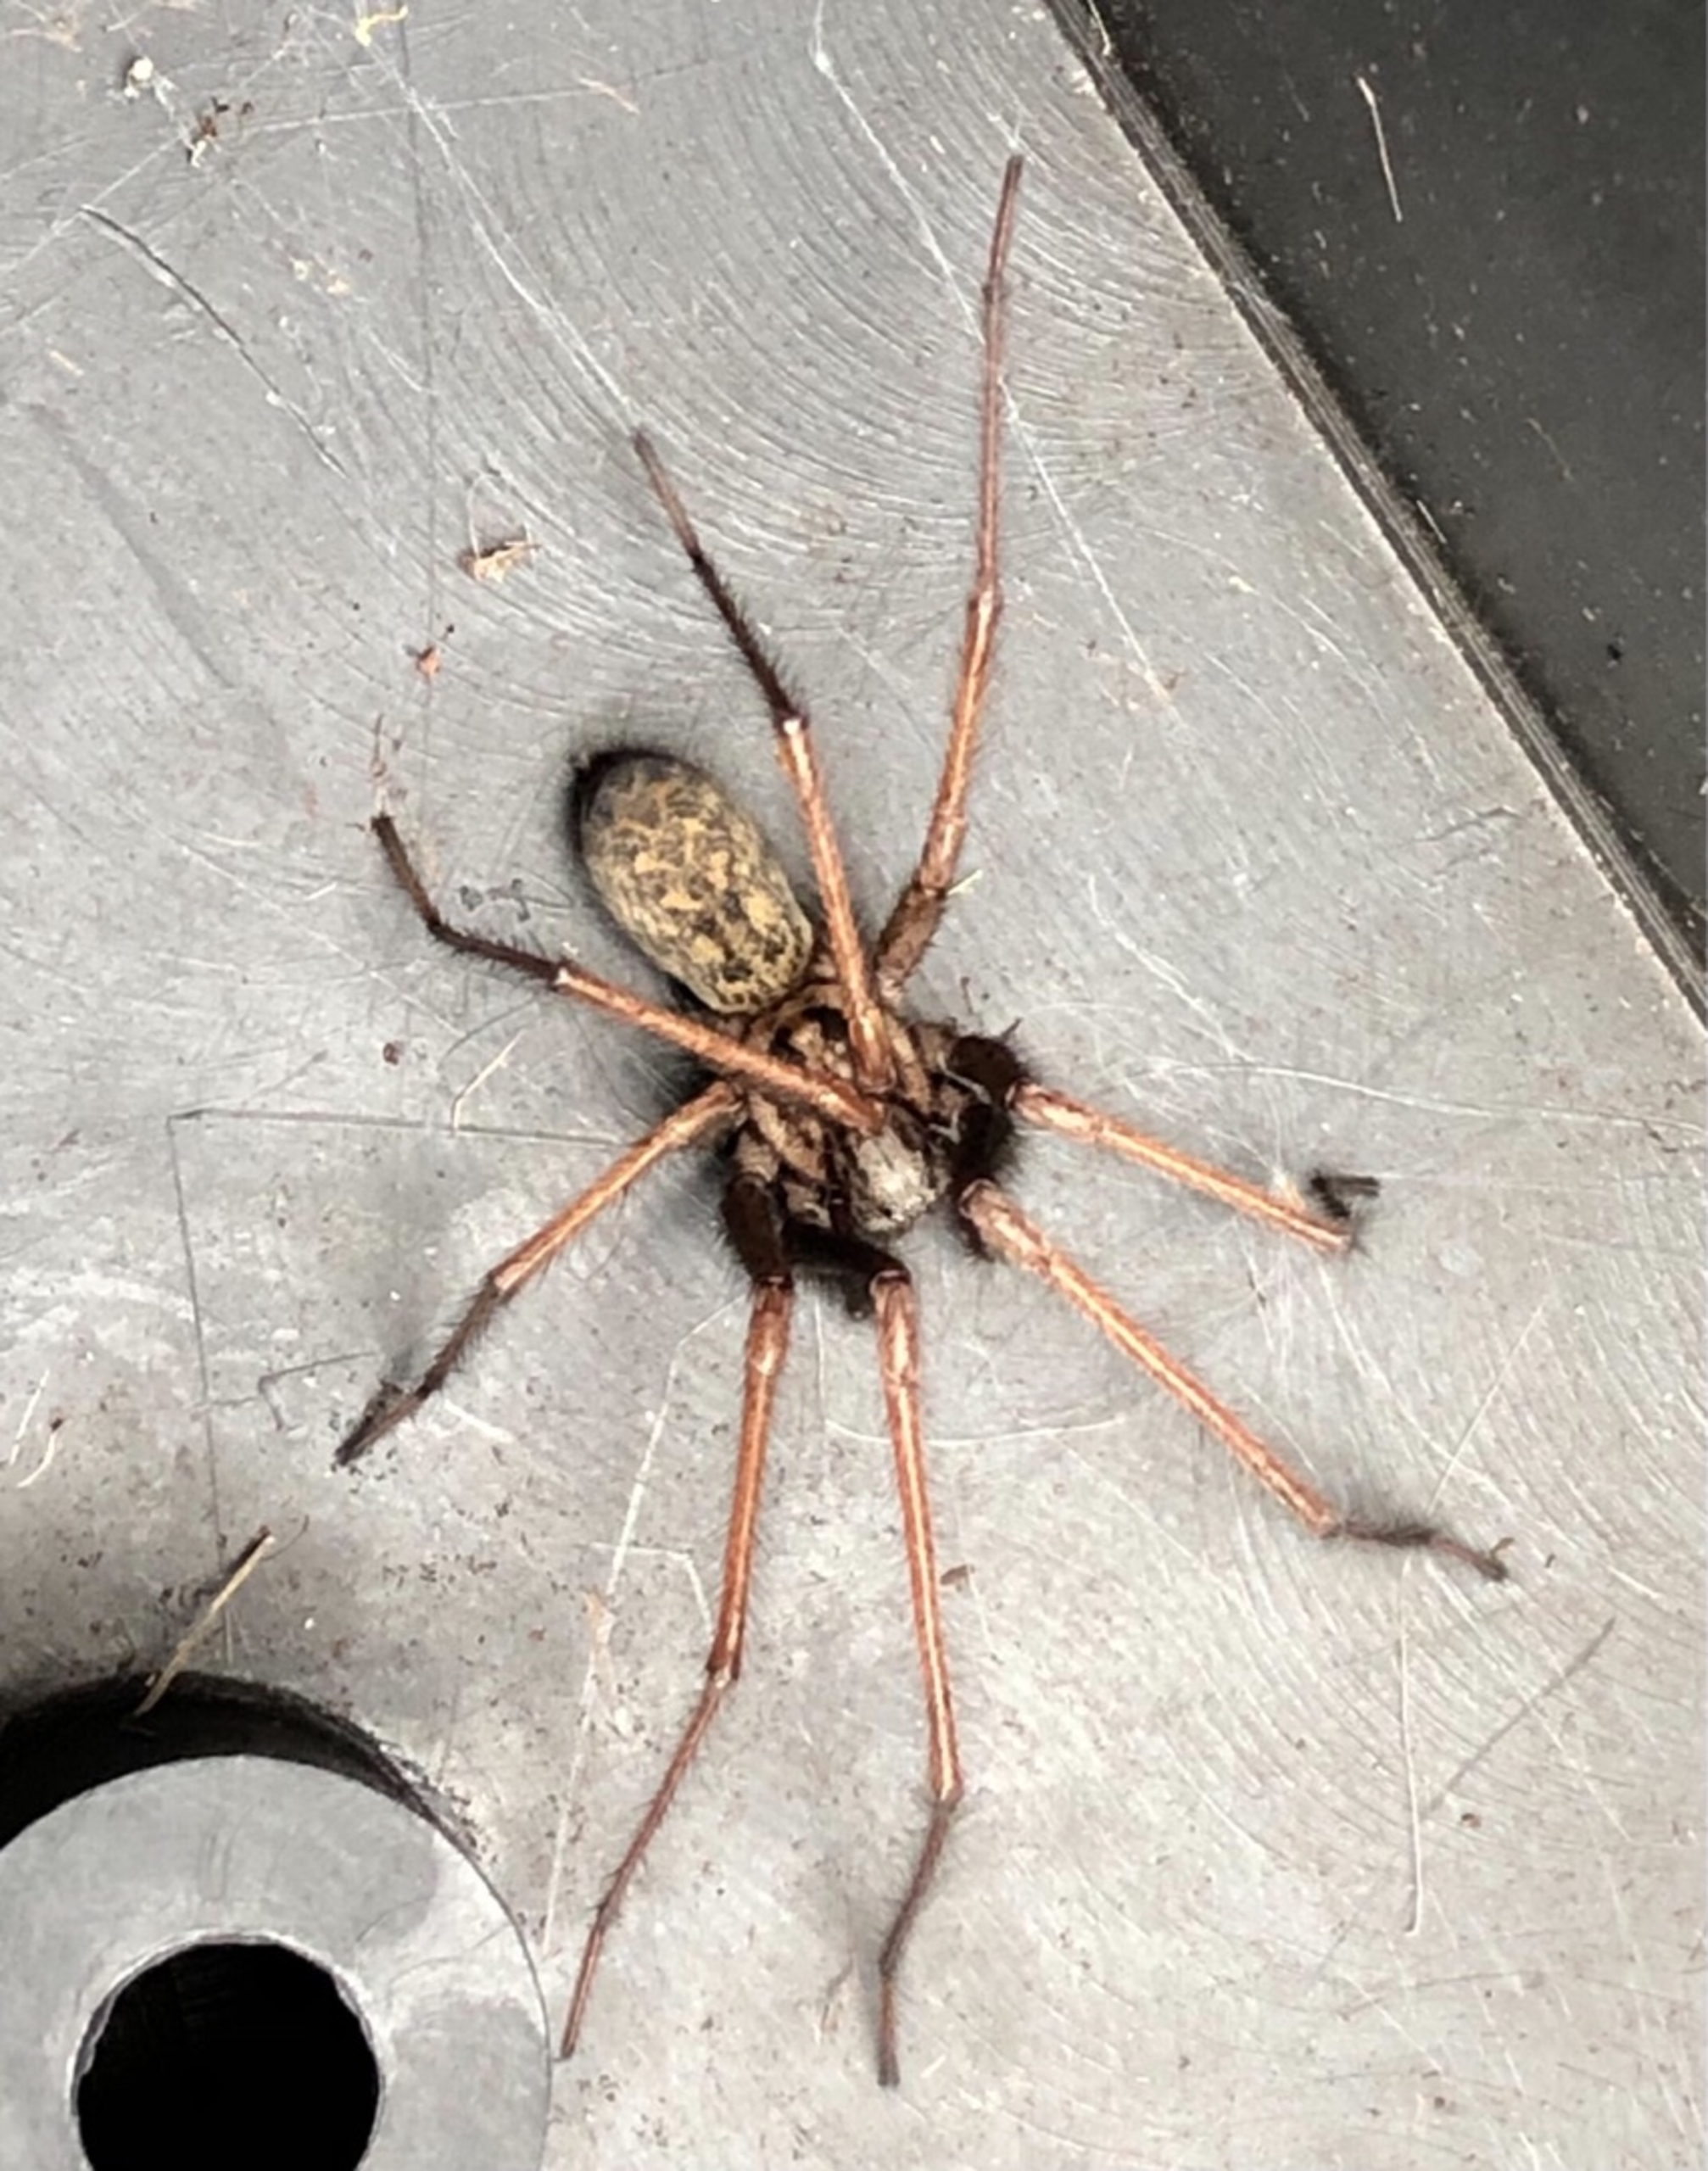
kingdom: Animalia
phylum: Arthropoda
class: Arachnida
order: Araneae
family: Agelenidae
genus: Eratigena
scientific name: Eratigena atrica
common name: Stor husedderkop
